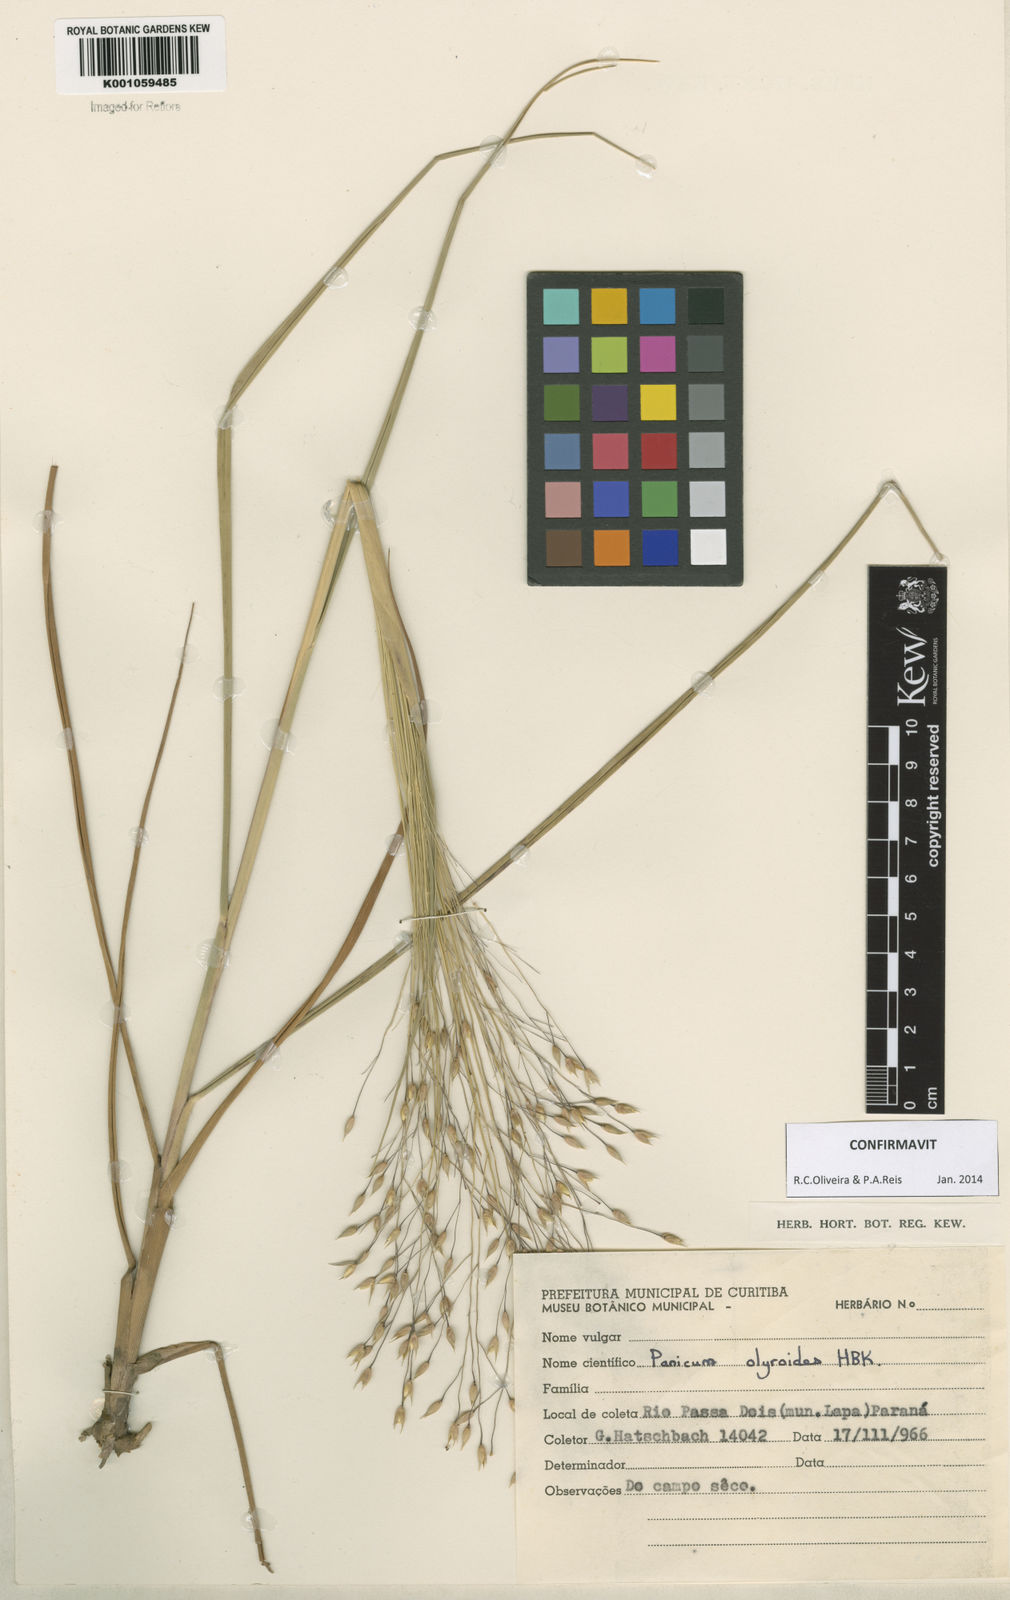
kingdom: Plantae
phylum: Tracheophyta
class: Liliopsida
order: Poales
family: Poaceae
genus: Panicum
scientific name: Panicum olyroides
